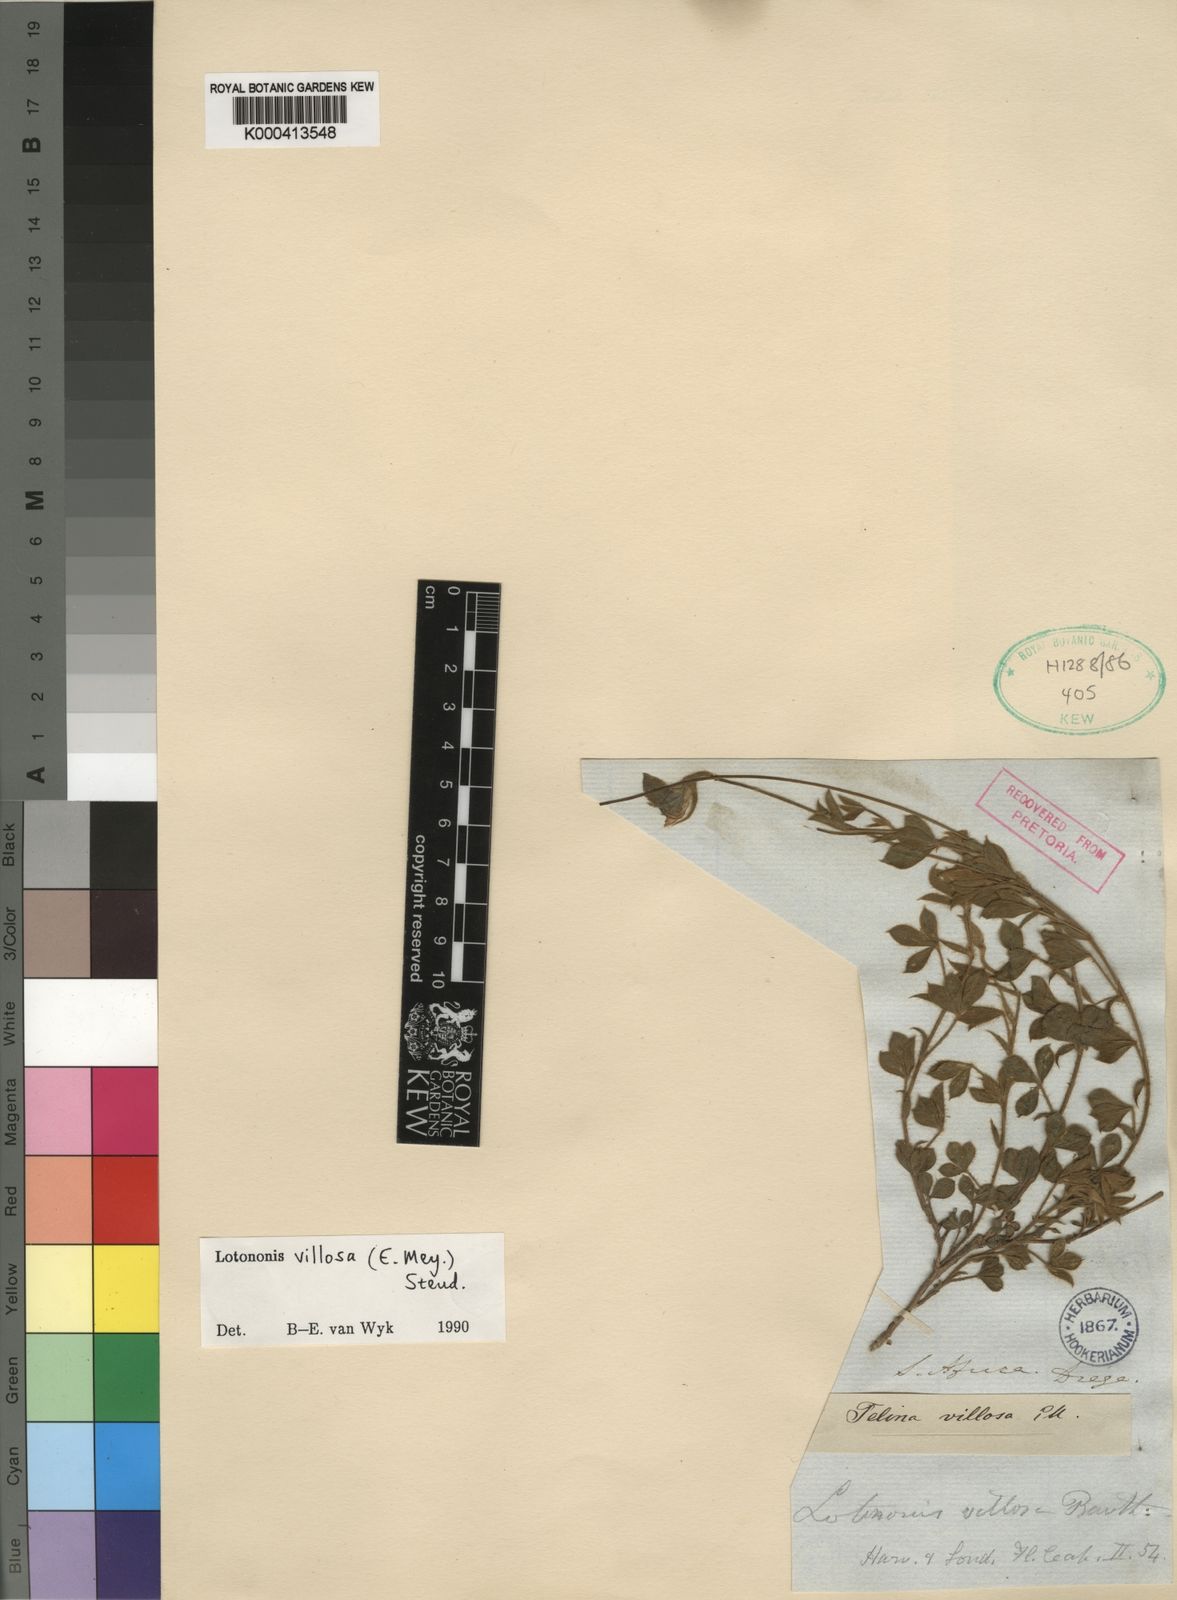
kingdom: Plantae
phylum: Tracheophyta
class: Magnoliopsida
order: Fabales
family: Fabaceae
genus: Lotononis
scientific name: Lotononis villosa
